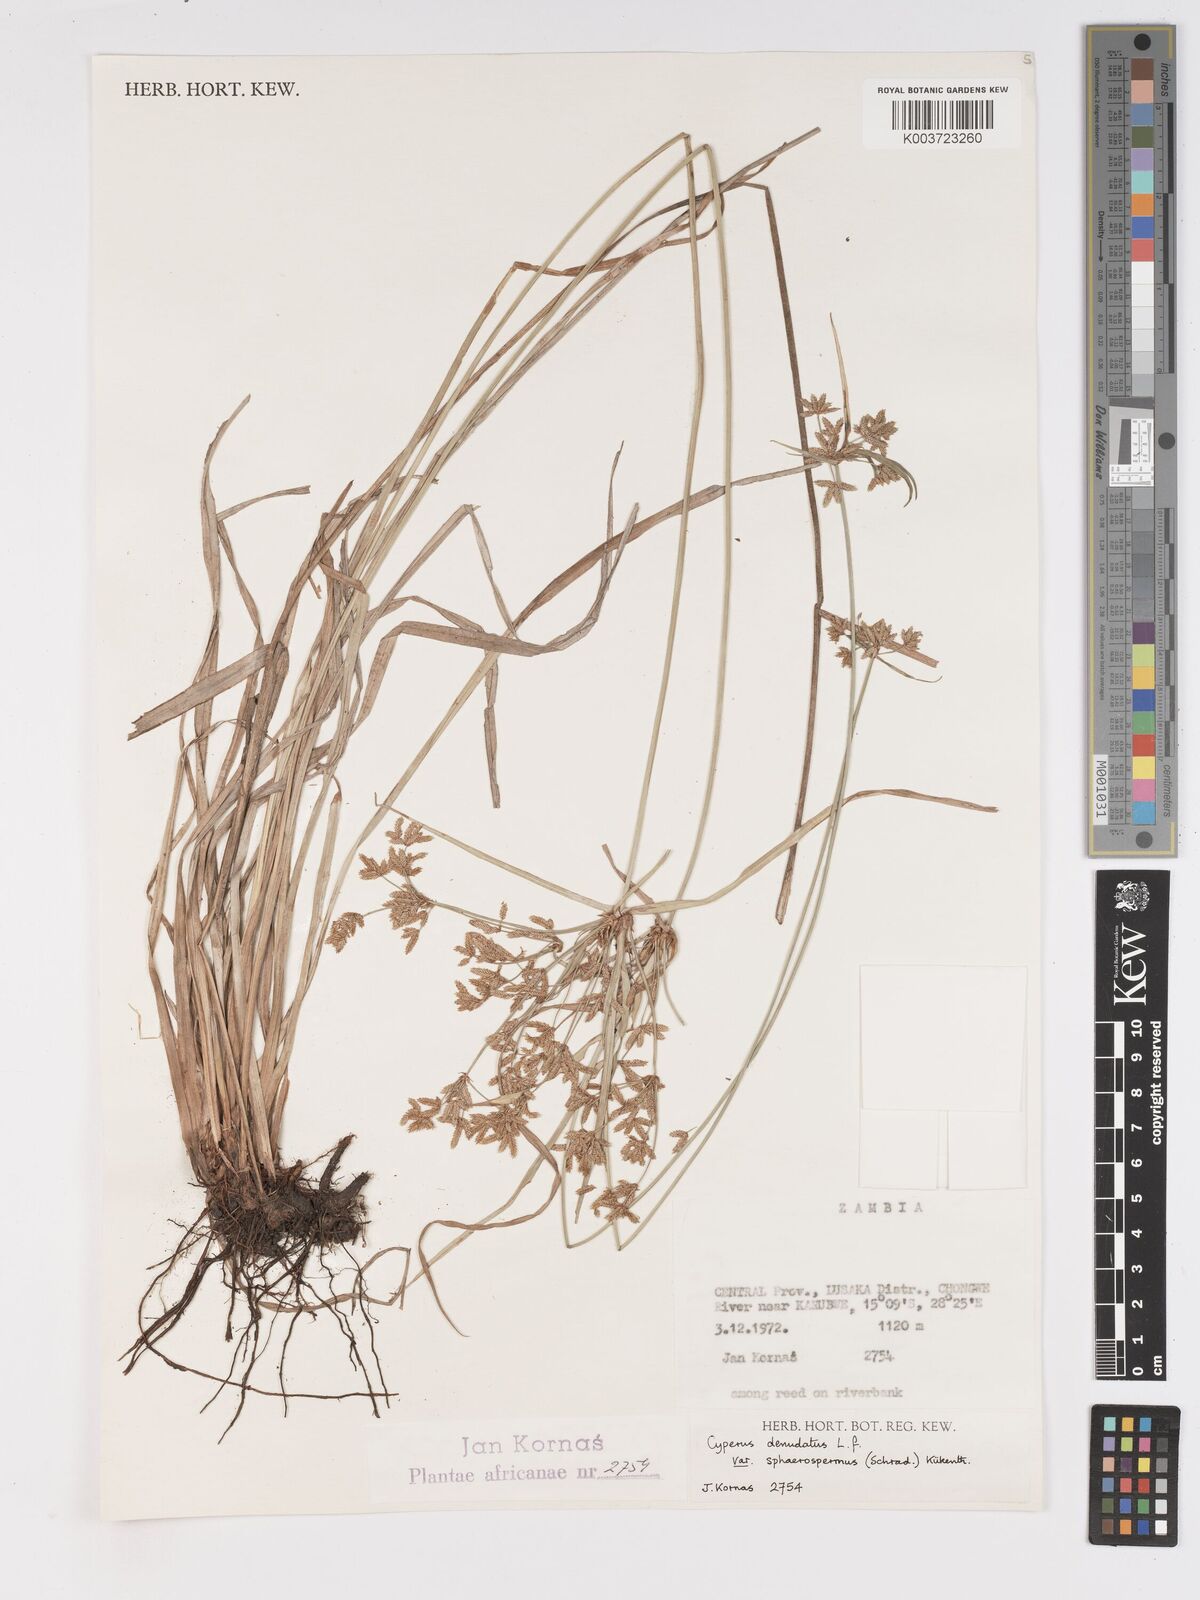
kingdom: Plantae
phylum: Tracheophyta
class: Liliopsida
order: Poales
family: Cyperaceae
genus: Cyperus
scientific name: Cyperus denudatus
